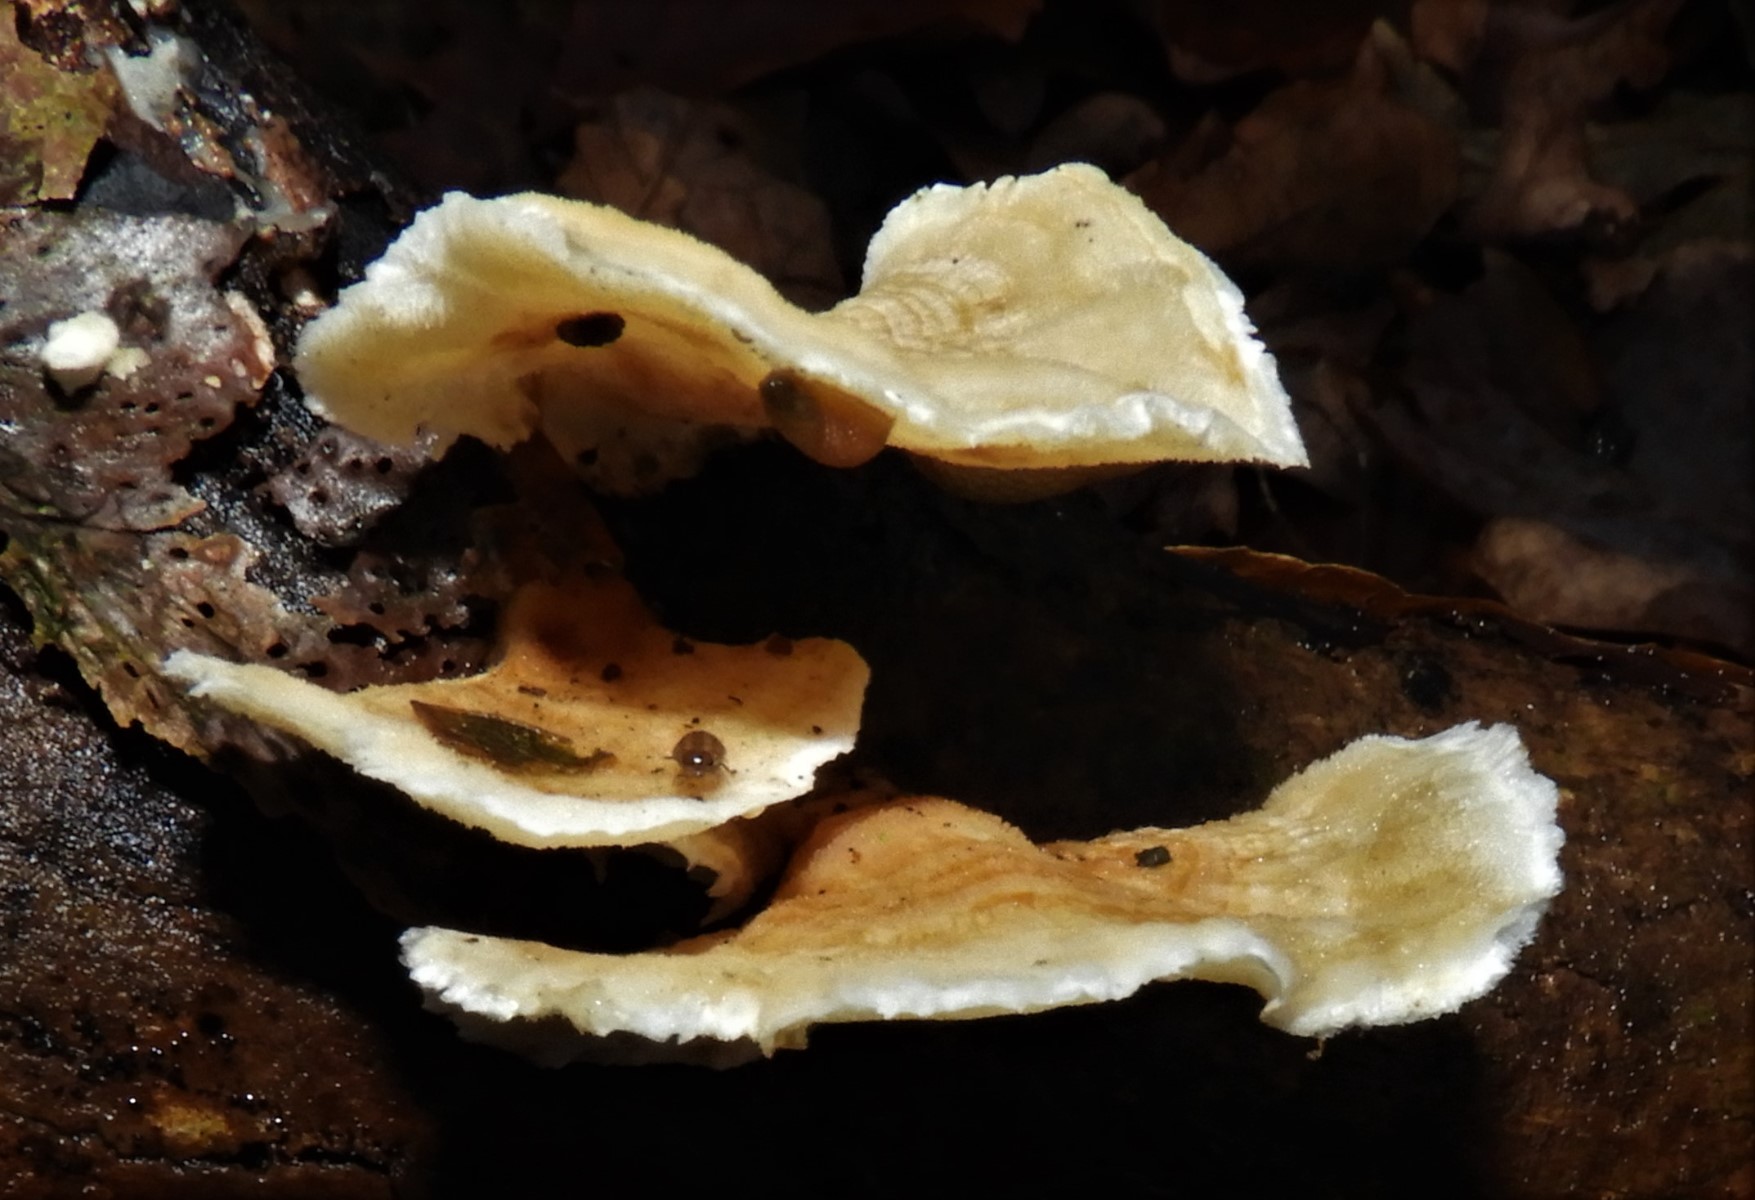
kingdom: Fungi
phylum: Basidiomycota
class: Agaricomycetes
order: Polyporales
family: Polyporaceae
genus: Trametes
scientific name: Trametes ochracea
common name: bæltet læderporesvamp
